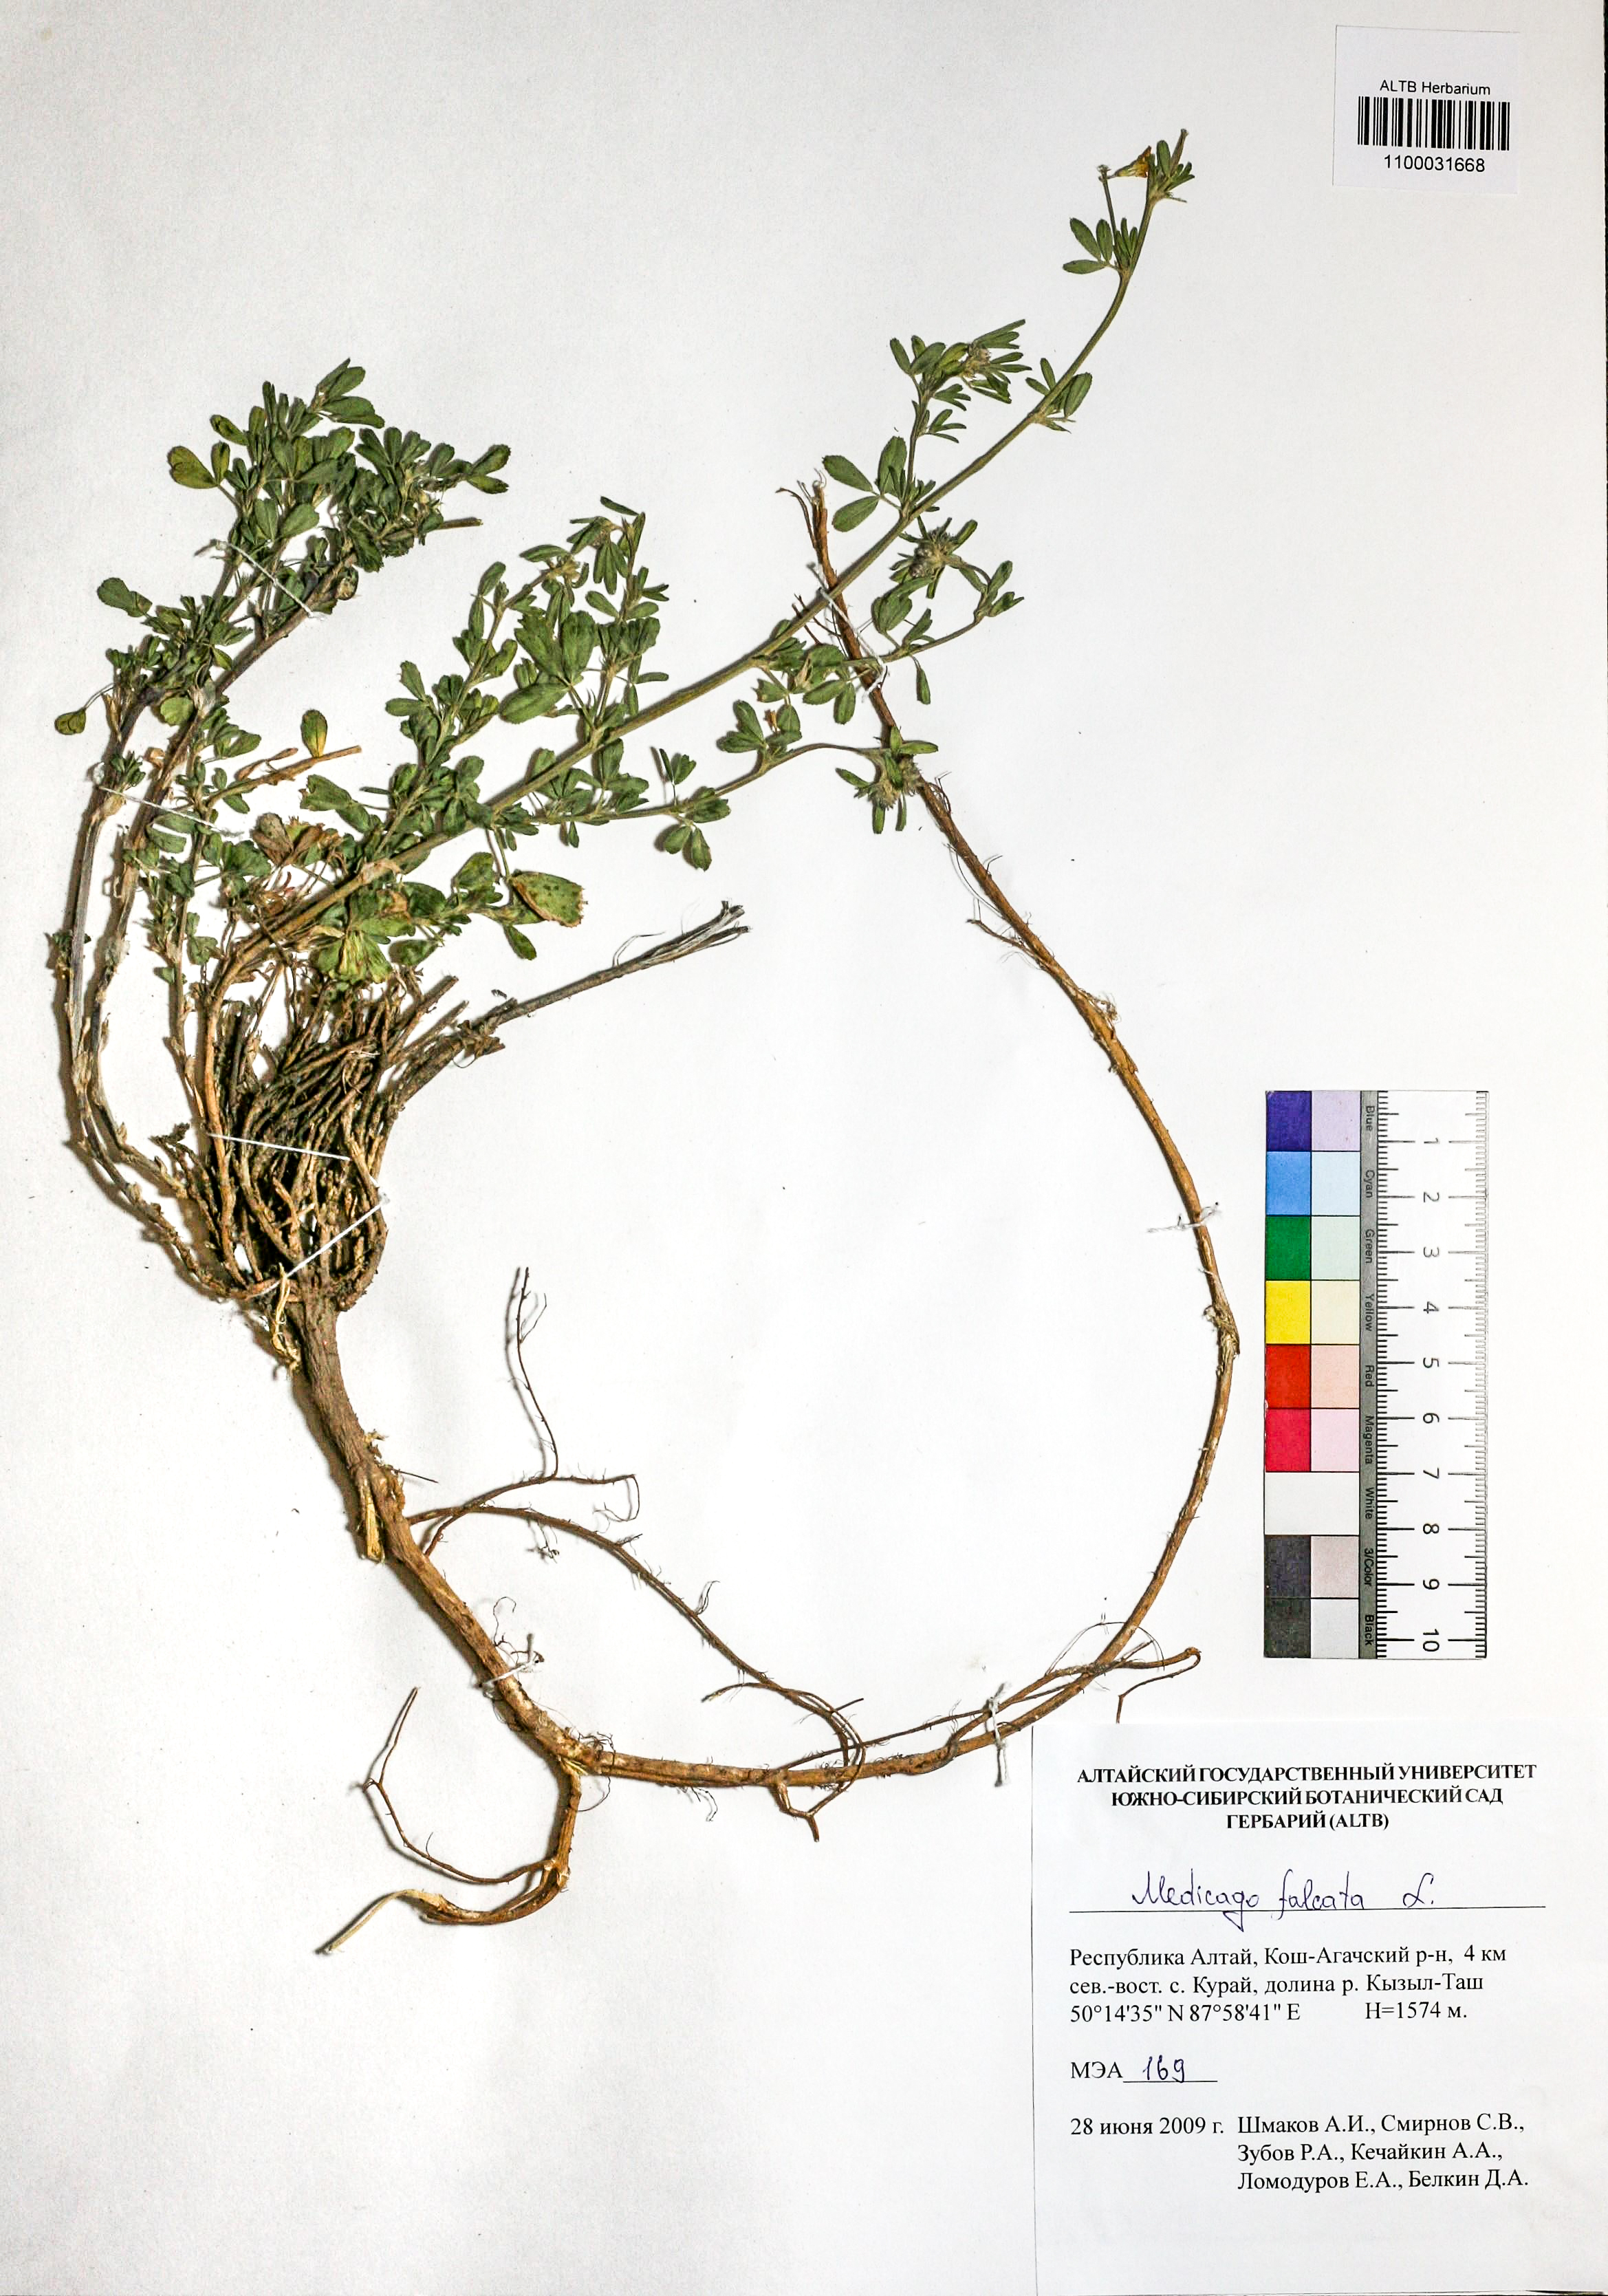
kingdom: Plantae
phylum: Tracheophyta
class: Magnoliopsida
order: Fabales
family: Fabaceae
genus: Medicago
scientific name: Medicago falcata
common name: Sickle medick
